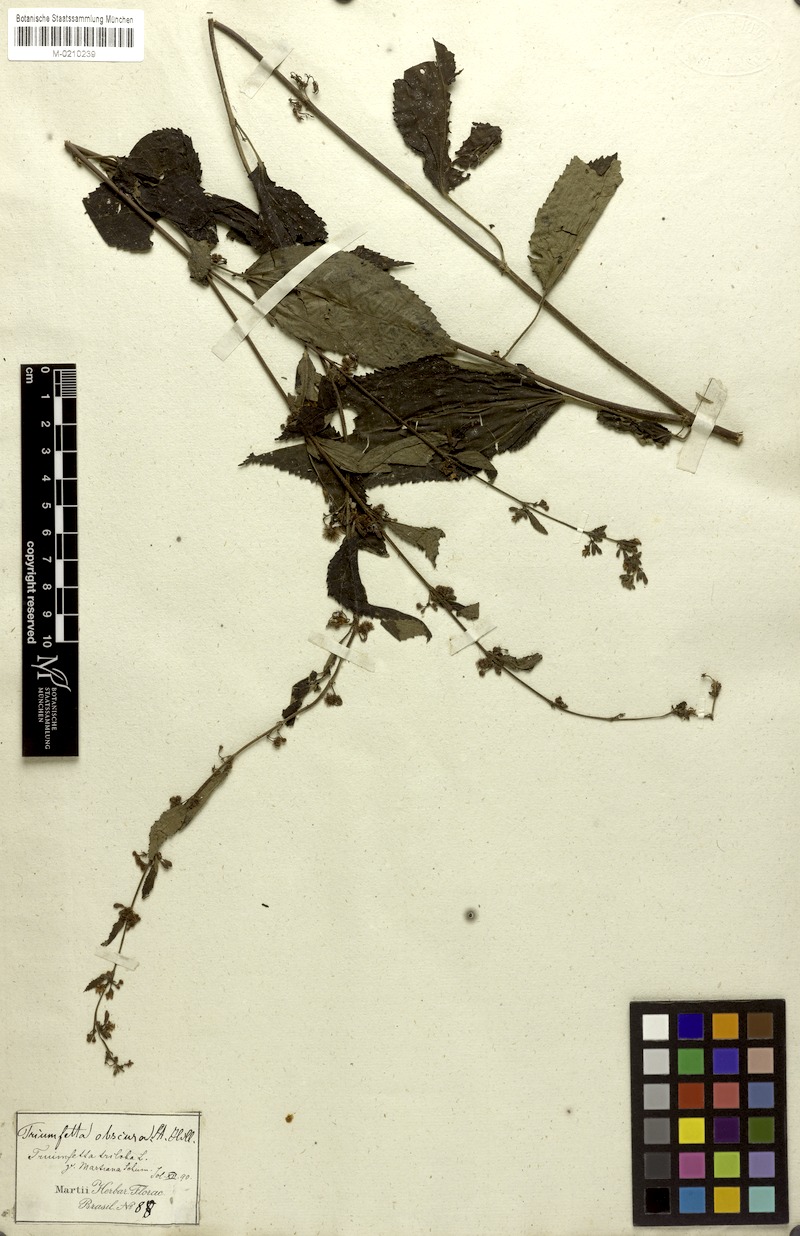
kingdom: Plantae
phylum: Tracheophyta
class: Magnoliopsida
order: Malvales
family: Malvaceae
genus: Triumfetta
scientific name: Triumfetta semitriloba
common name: Sacramento burbark
